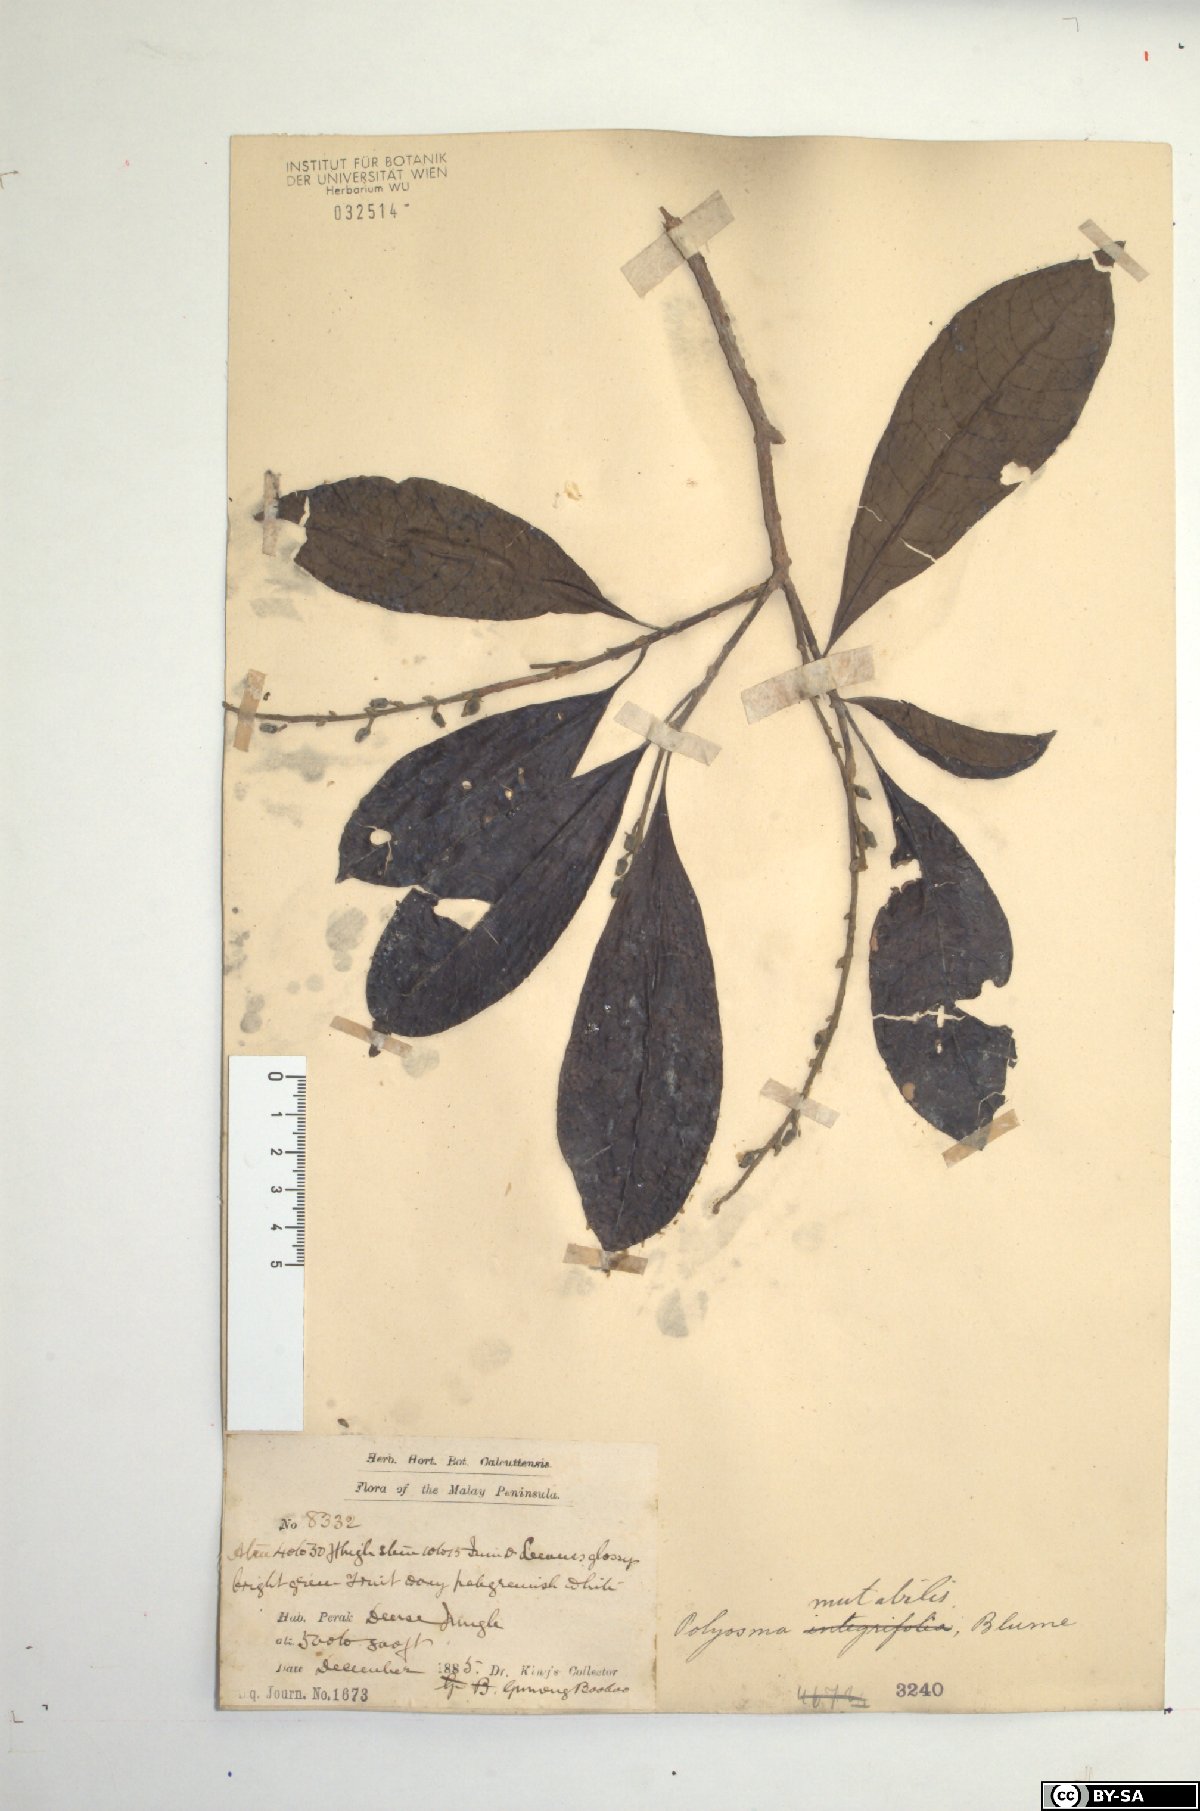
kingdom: Plantae
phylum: Tracheophyta
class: Magnoliopsida
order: Escalloniales
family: Escalloniaceae
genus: Polyosma
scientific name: Polyosma fragrans
